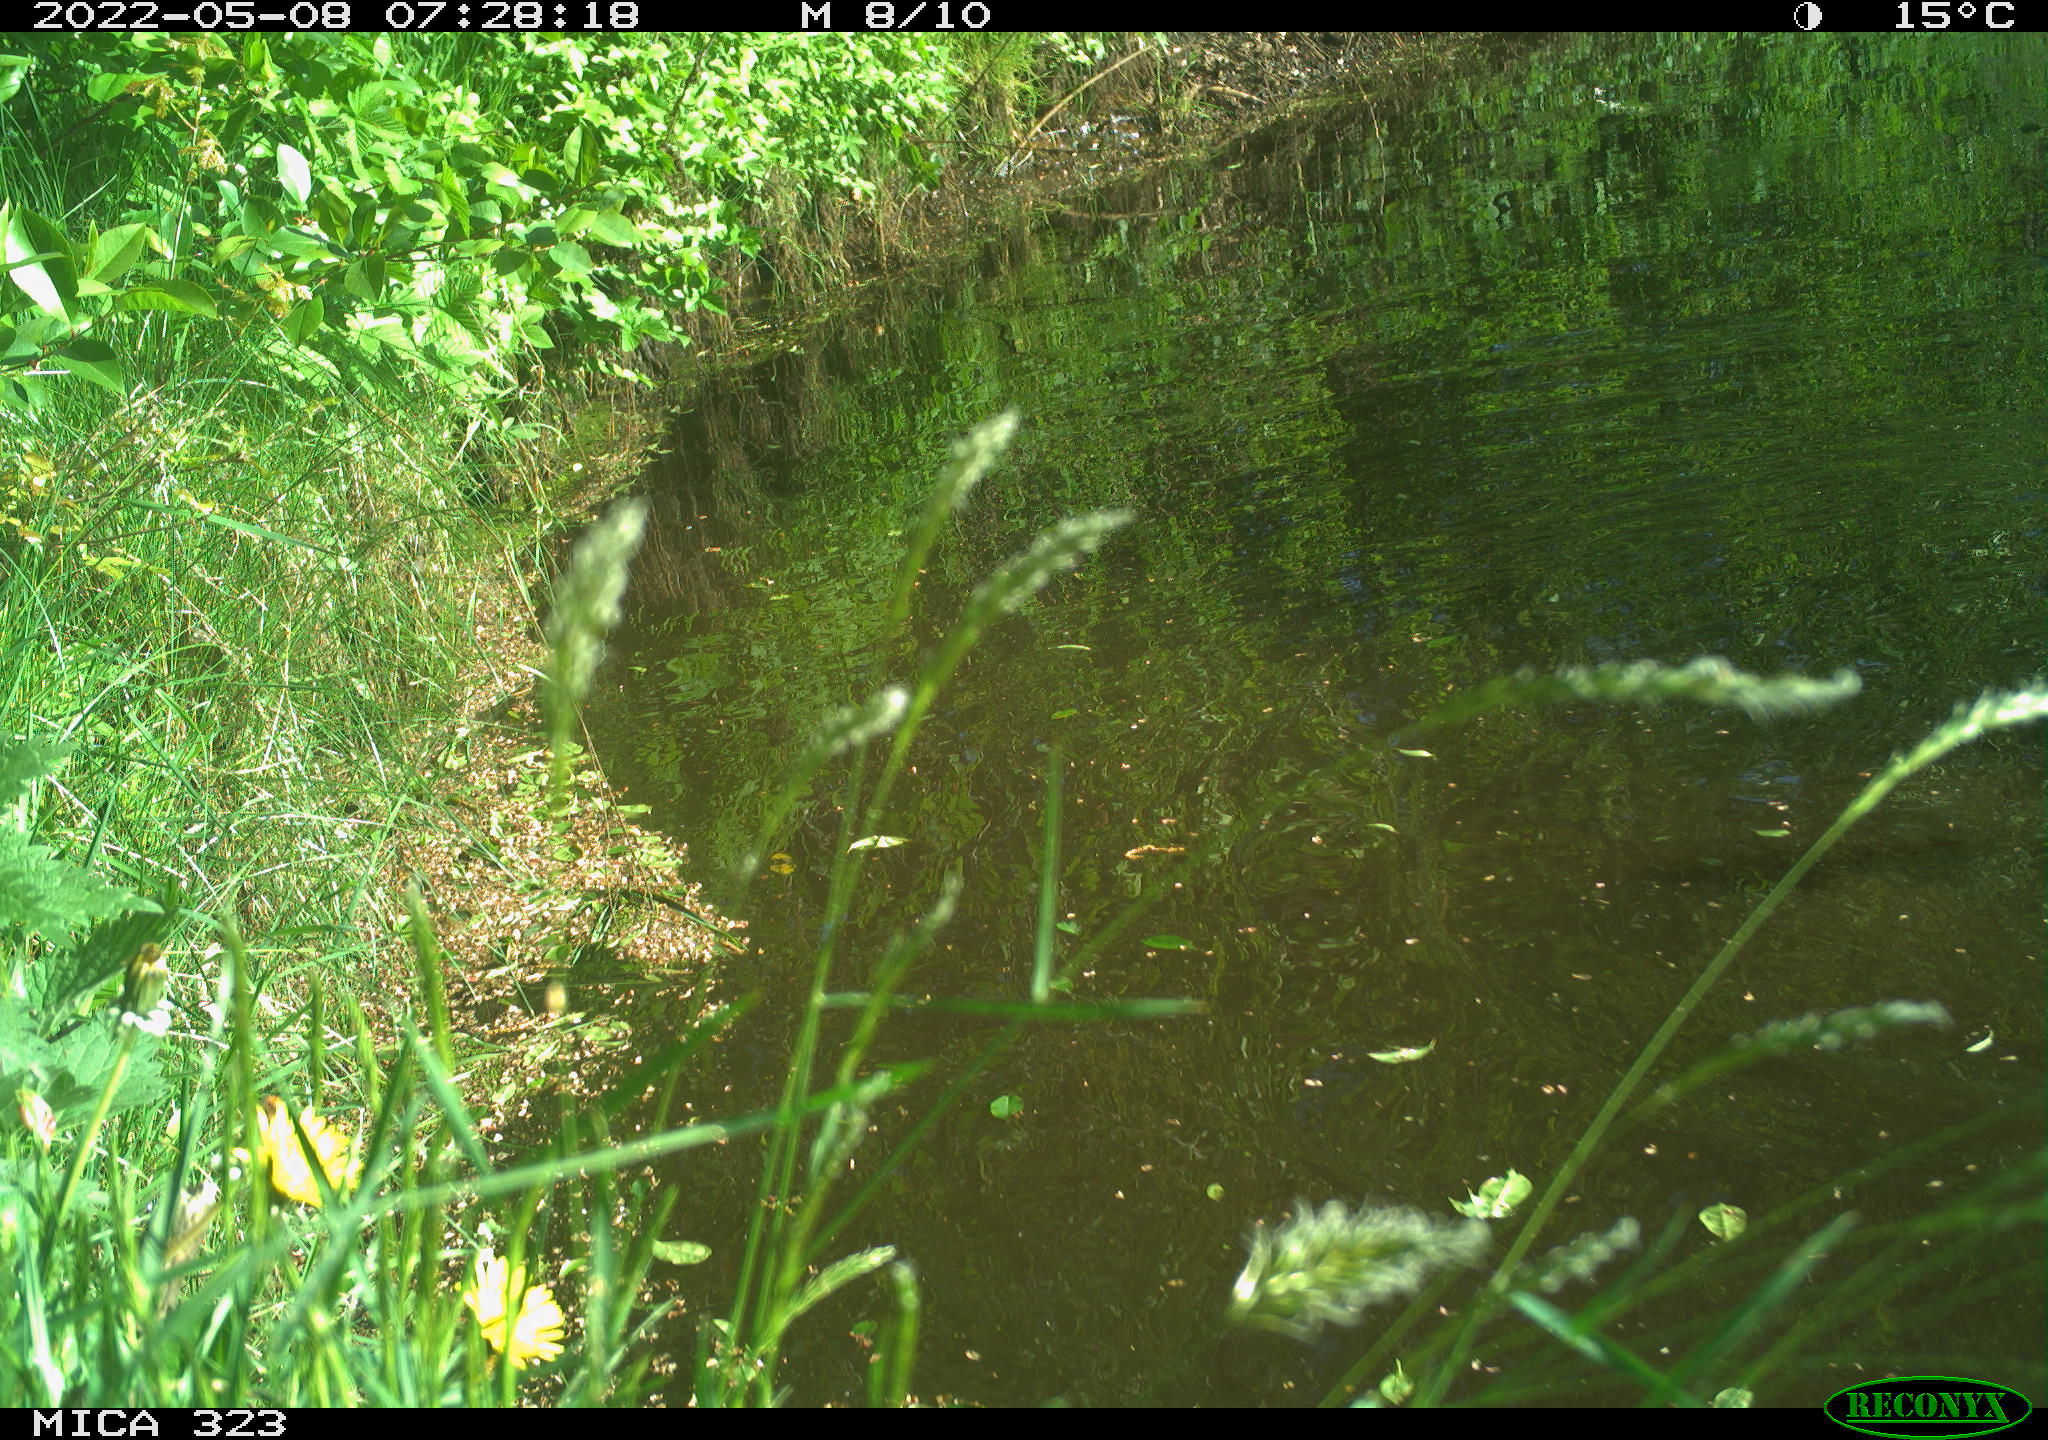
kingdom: Animalia
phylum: Chordata
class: Aves
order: Anseriformes
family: Anatidae
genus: Anser
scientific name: Anser anser
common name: Greylag goose
